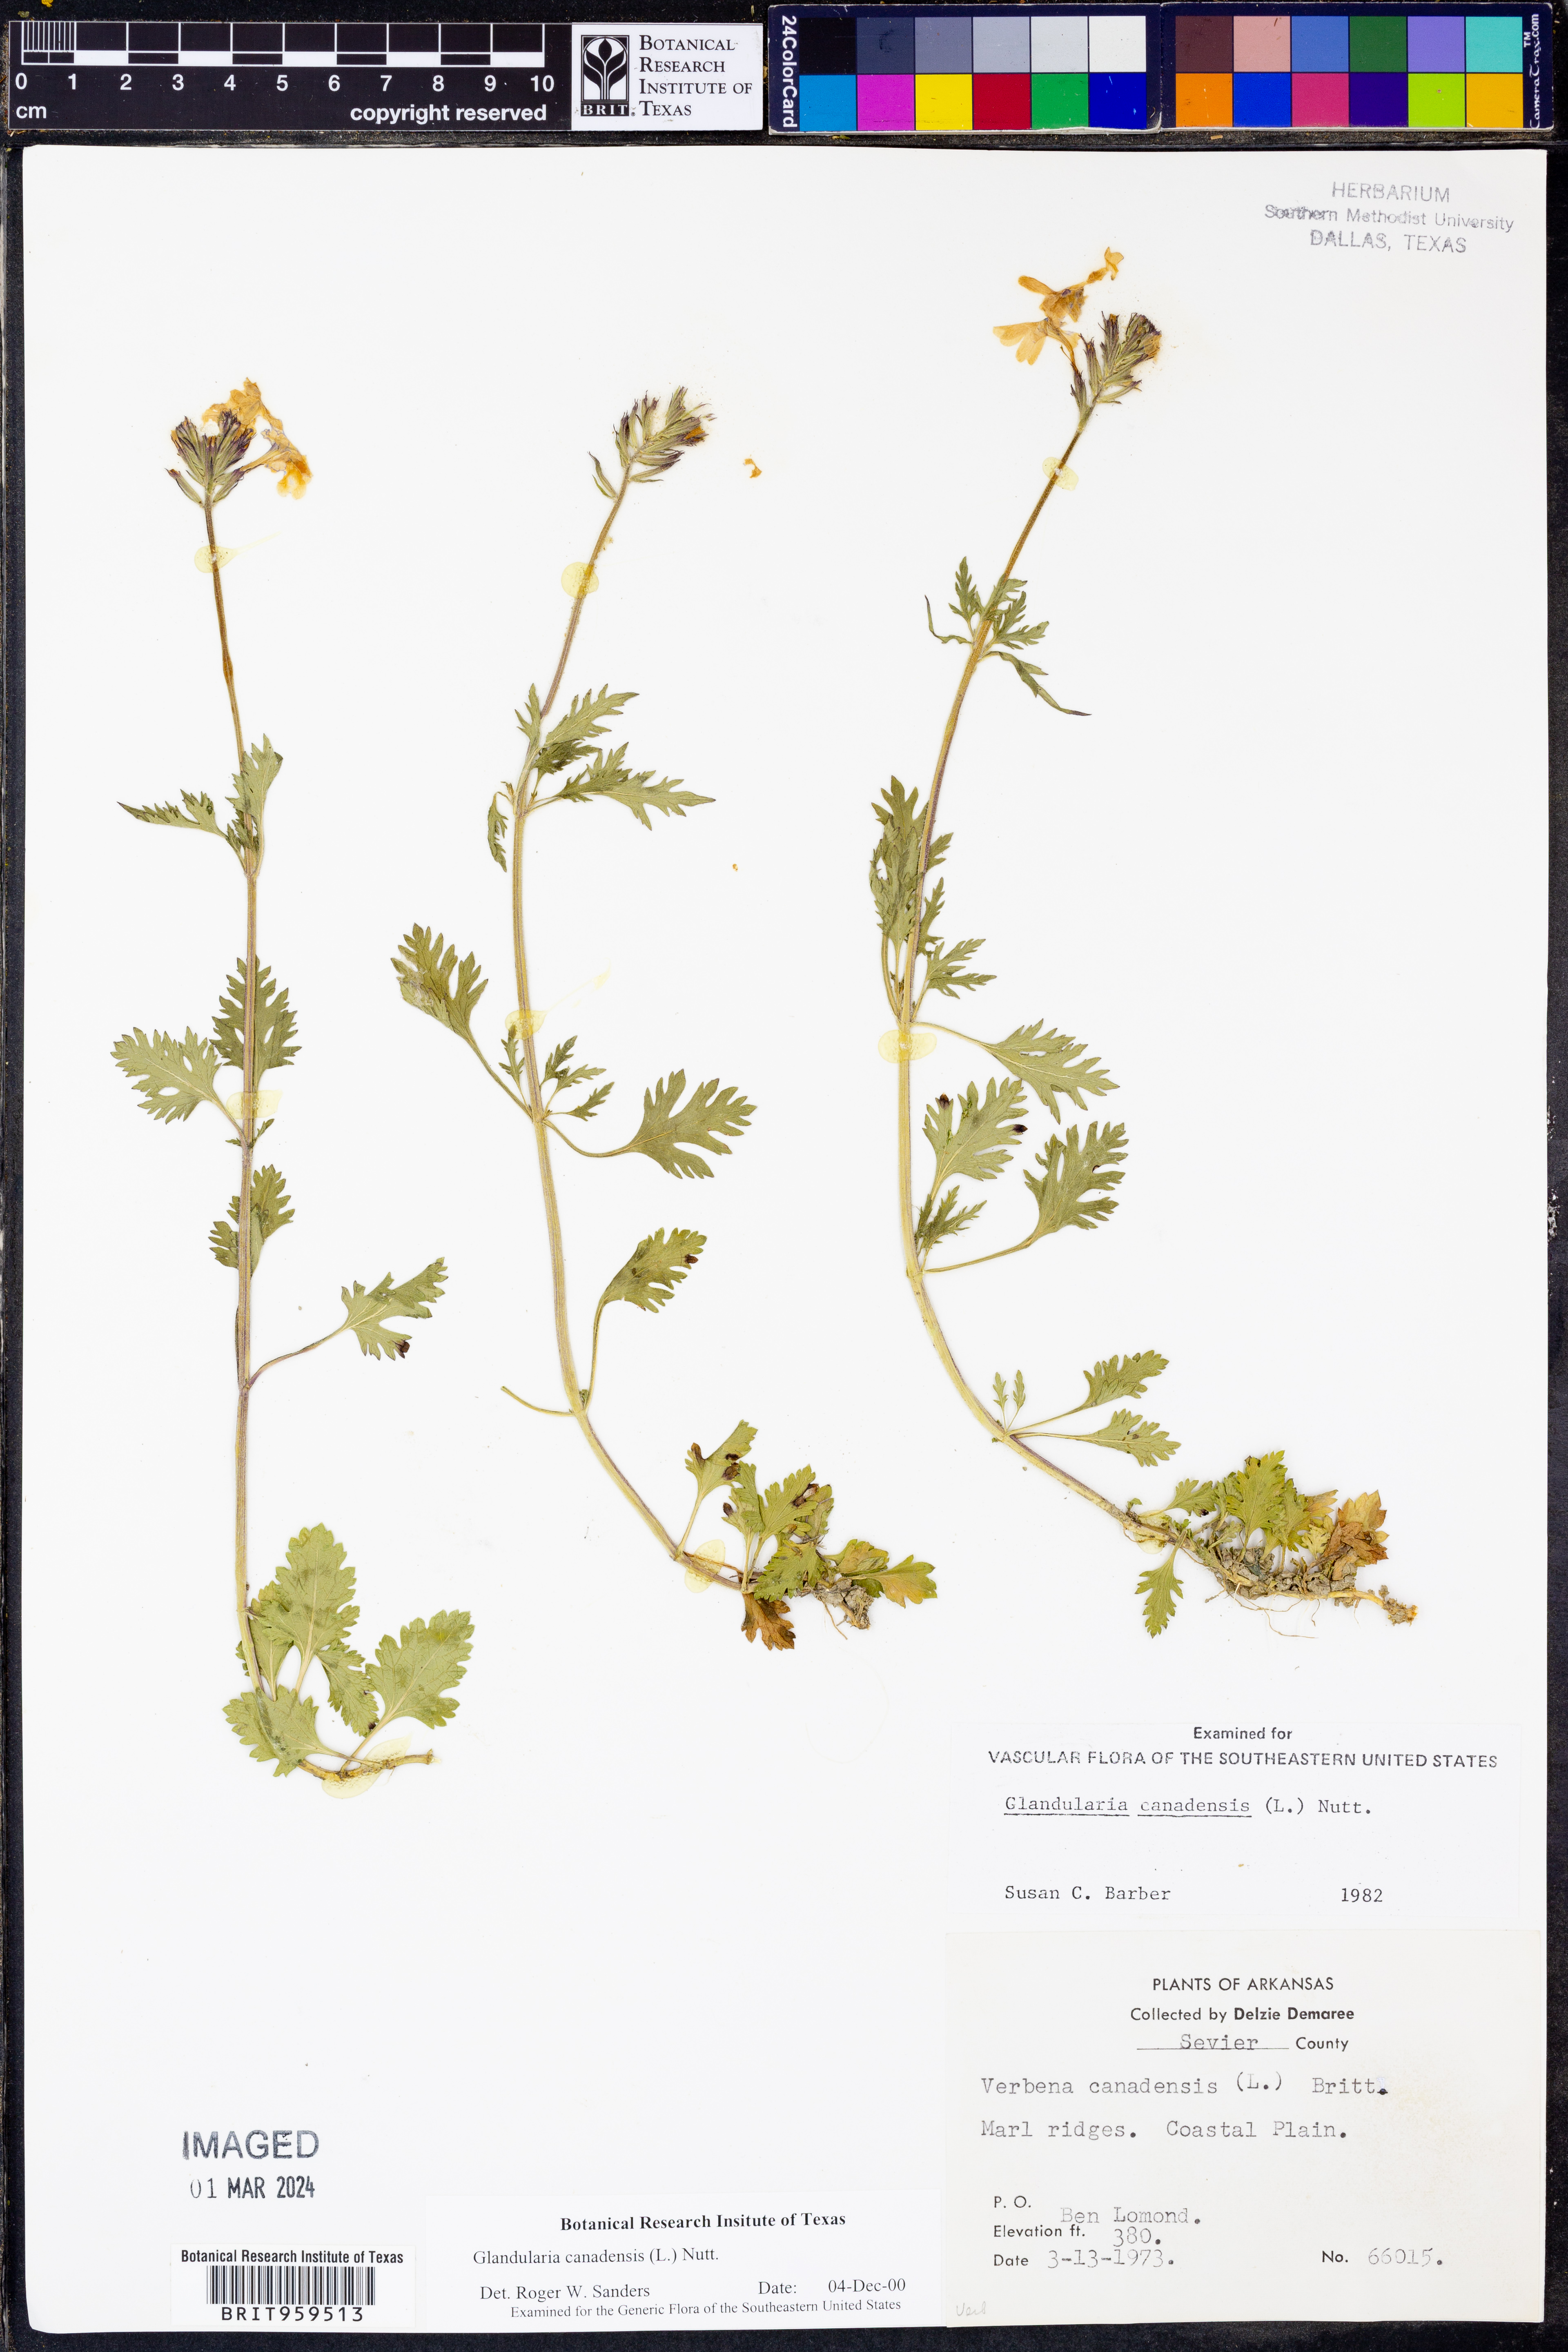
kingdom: Plantae
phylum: Tracheophyta
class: Magnoliopsida
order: Lamiales
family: Verbenaceae
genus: Verbena
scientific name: Verbena canadensis
